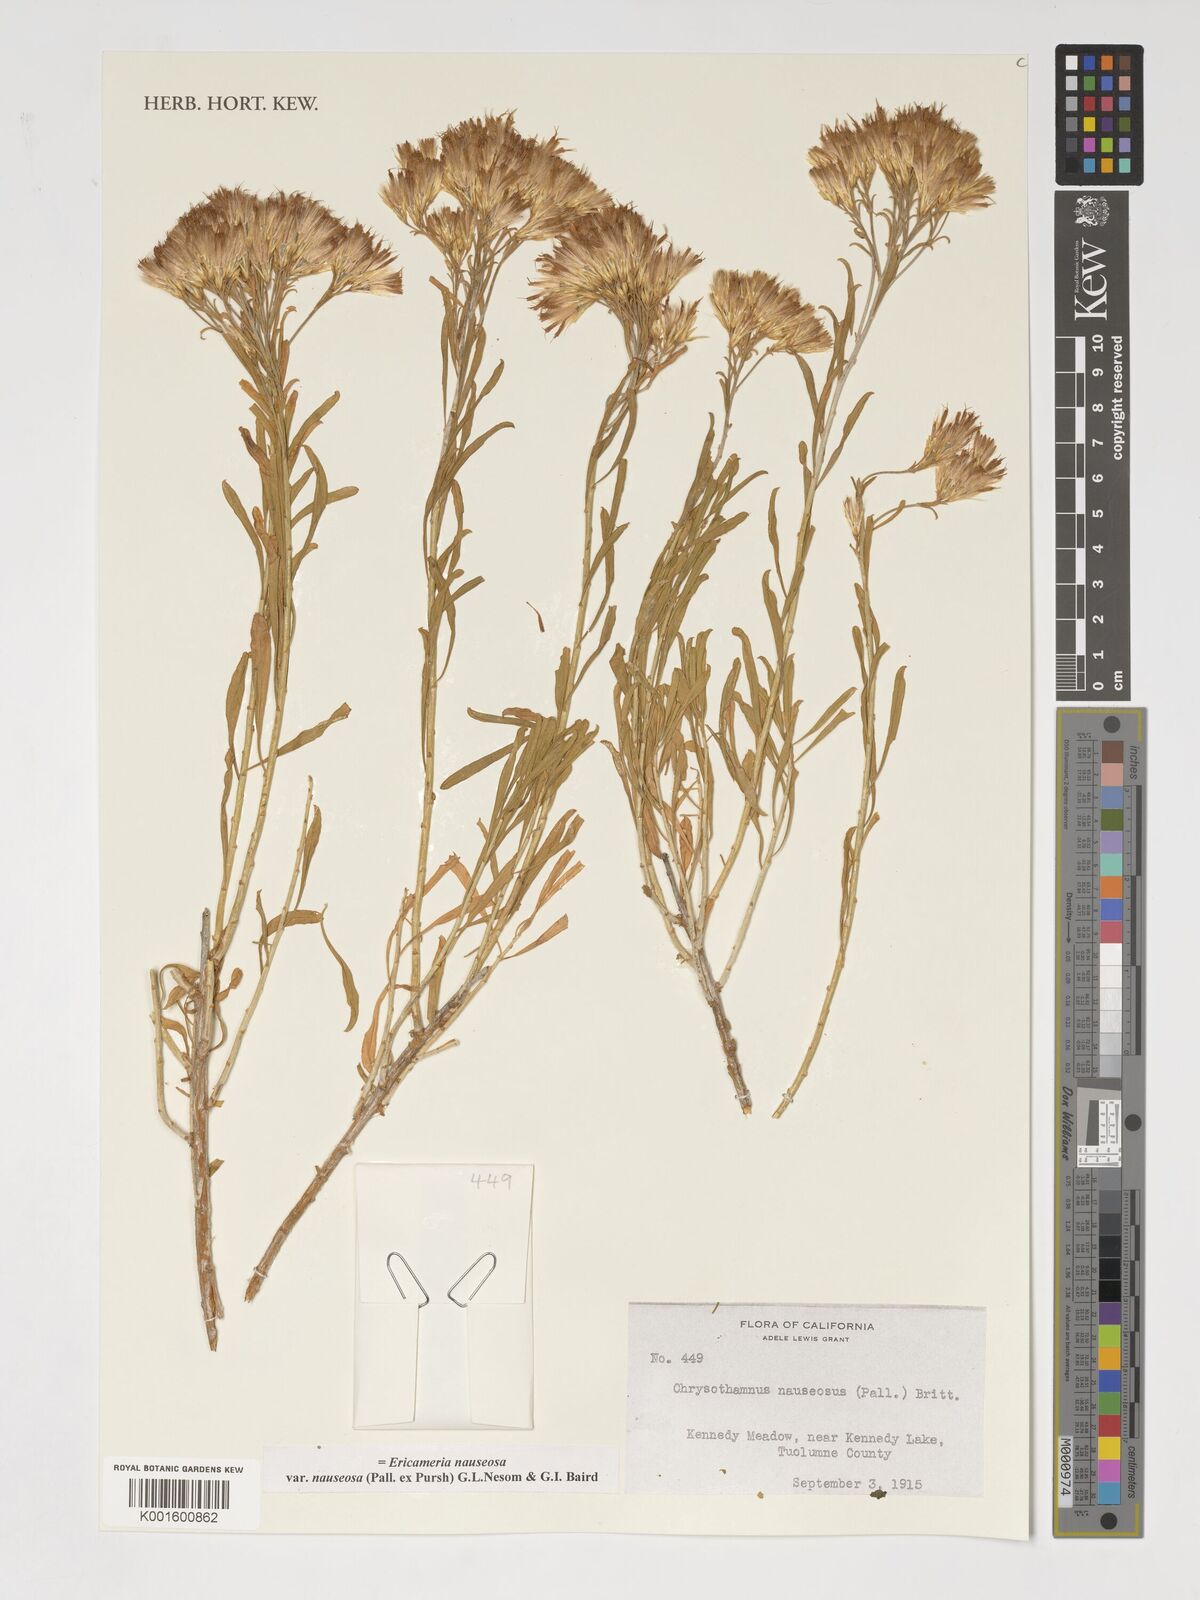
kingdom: Plantae
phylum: Tracheophyta
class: Magnoliopsida
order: Asterales
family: Asteraceae
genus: Ericameria
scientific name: Ericameria nauseosa
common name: Rubber rabbitbrush
